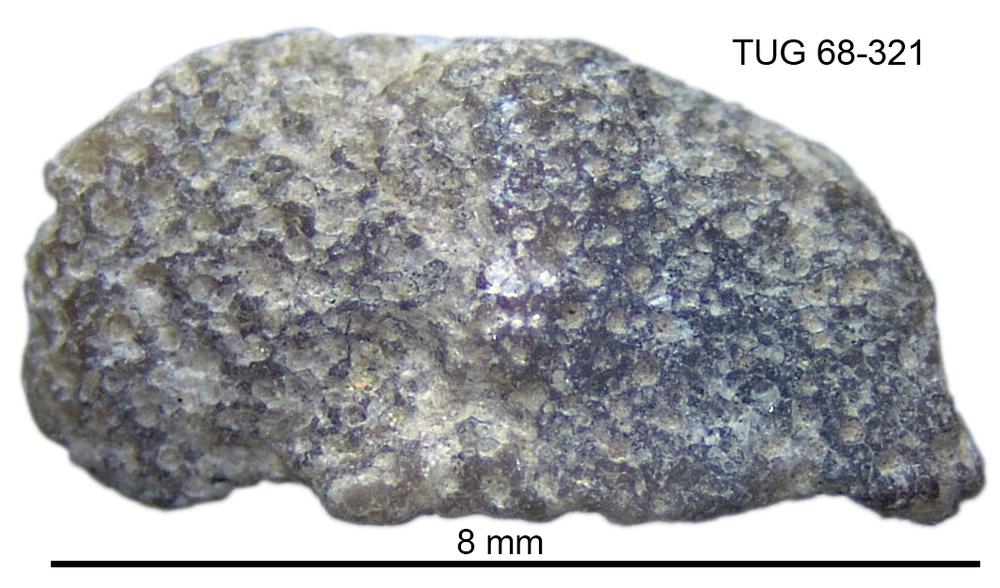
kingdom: Animalia
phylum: Bryozoa
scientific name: Bryozoa
